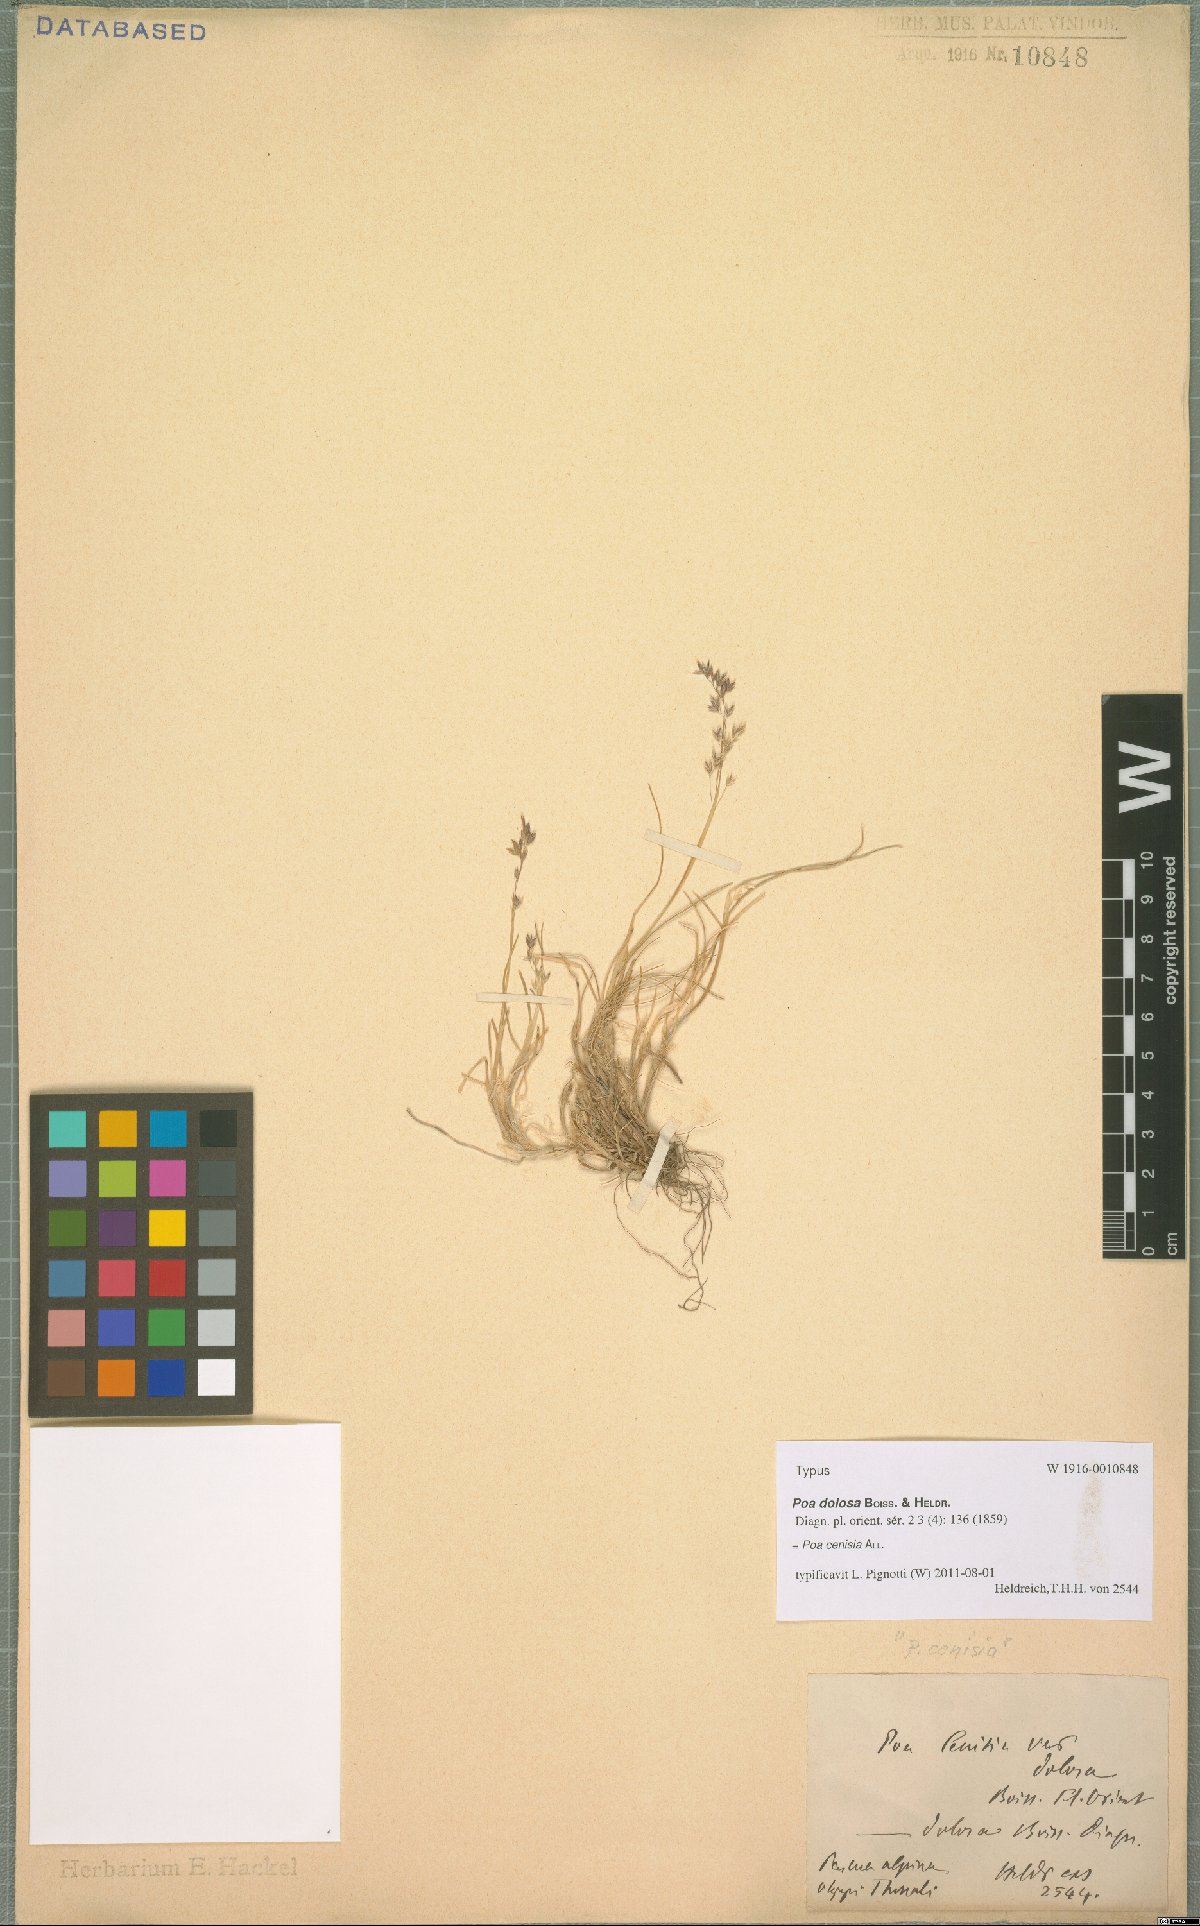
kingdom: Plantae
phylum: Tracheophyta
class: Liliopsida
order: Poales
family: Poaceae
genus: Poa
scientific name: Poa cenisia
